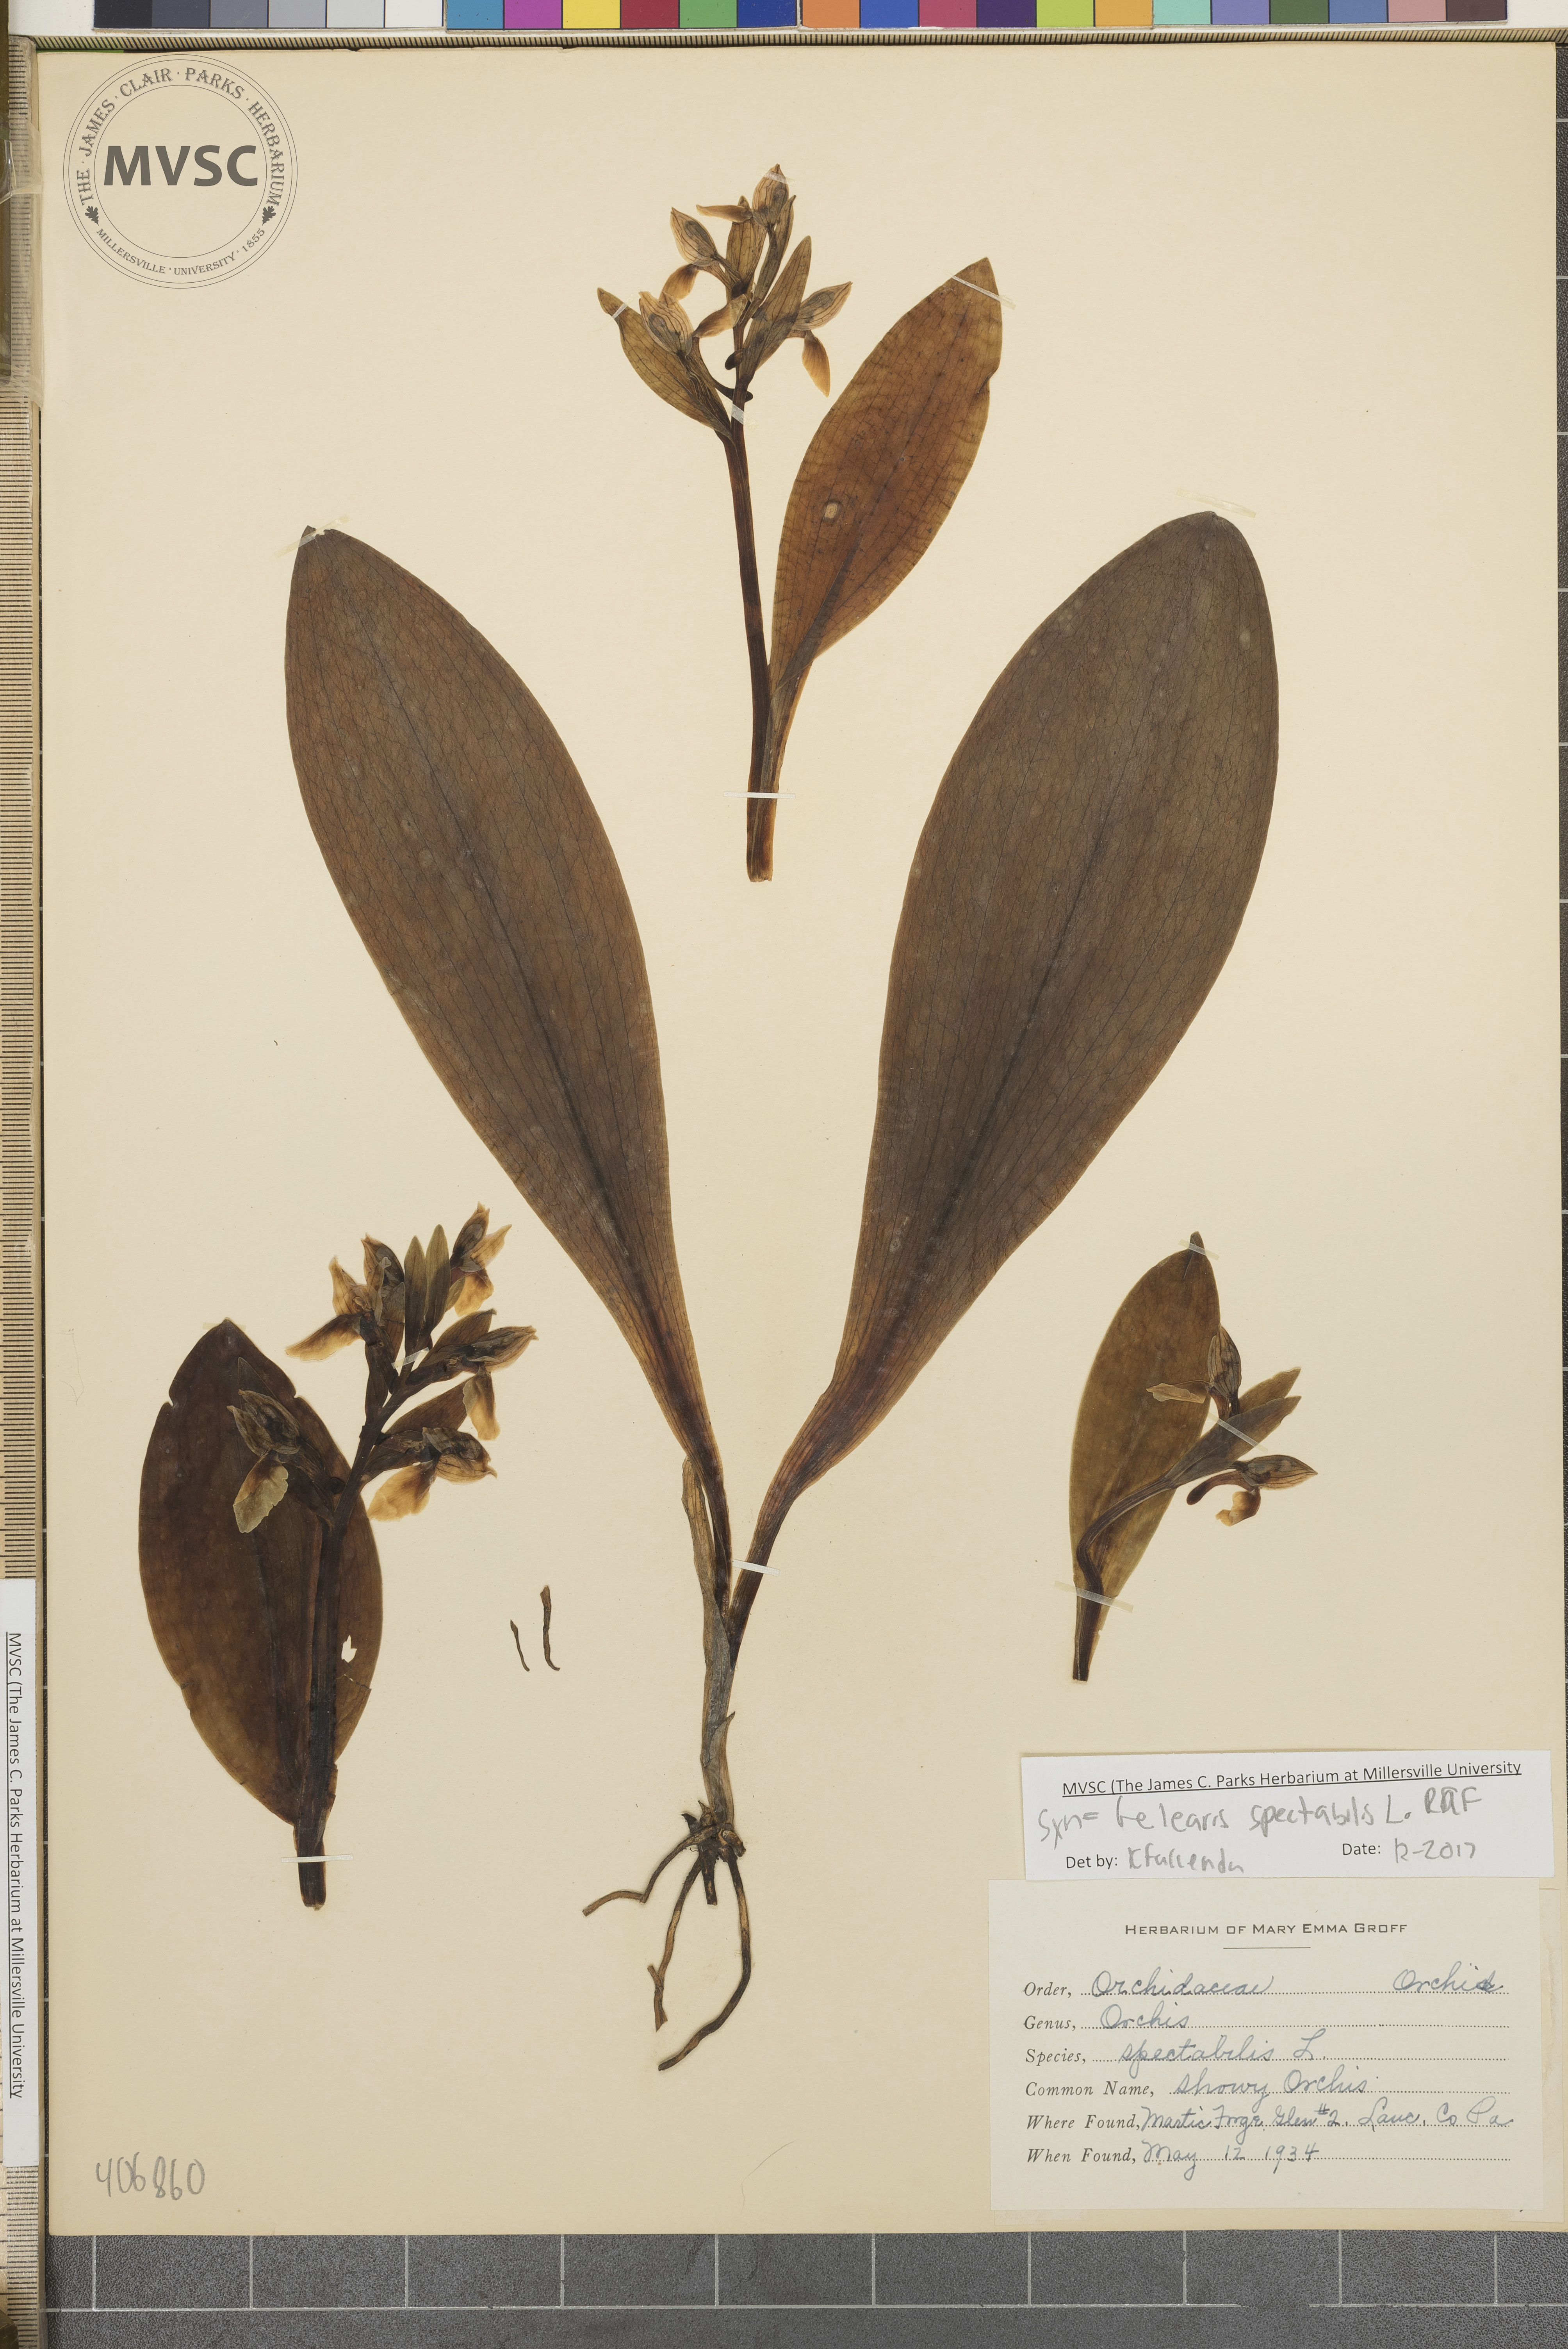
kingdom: Plantae
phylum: Tracheophyta
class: Liliopsida
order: Asparagales
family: Orchidaceae
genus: Galearis
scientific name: Galearis spectabilis
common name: Showy Orchis
